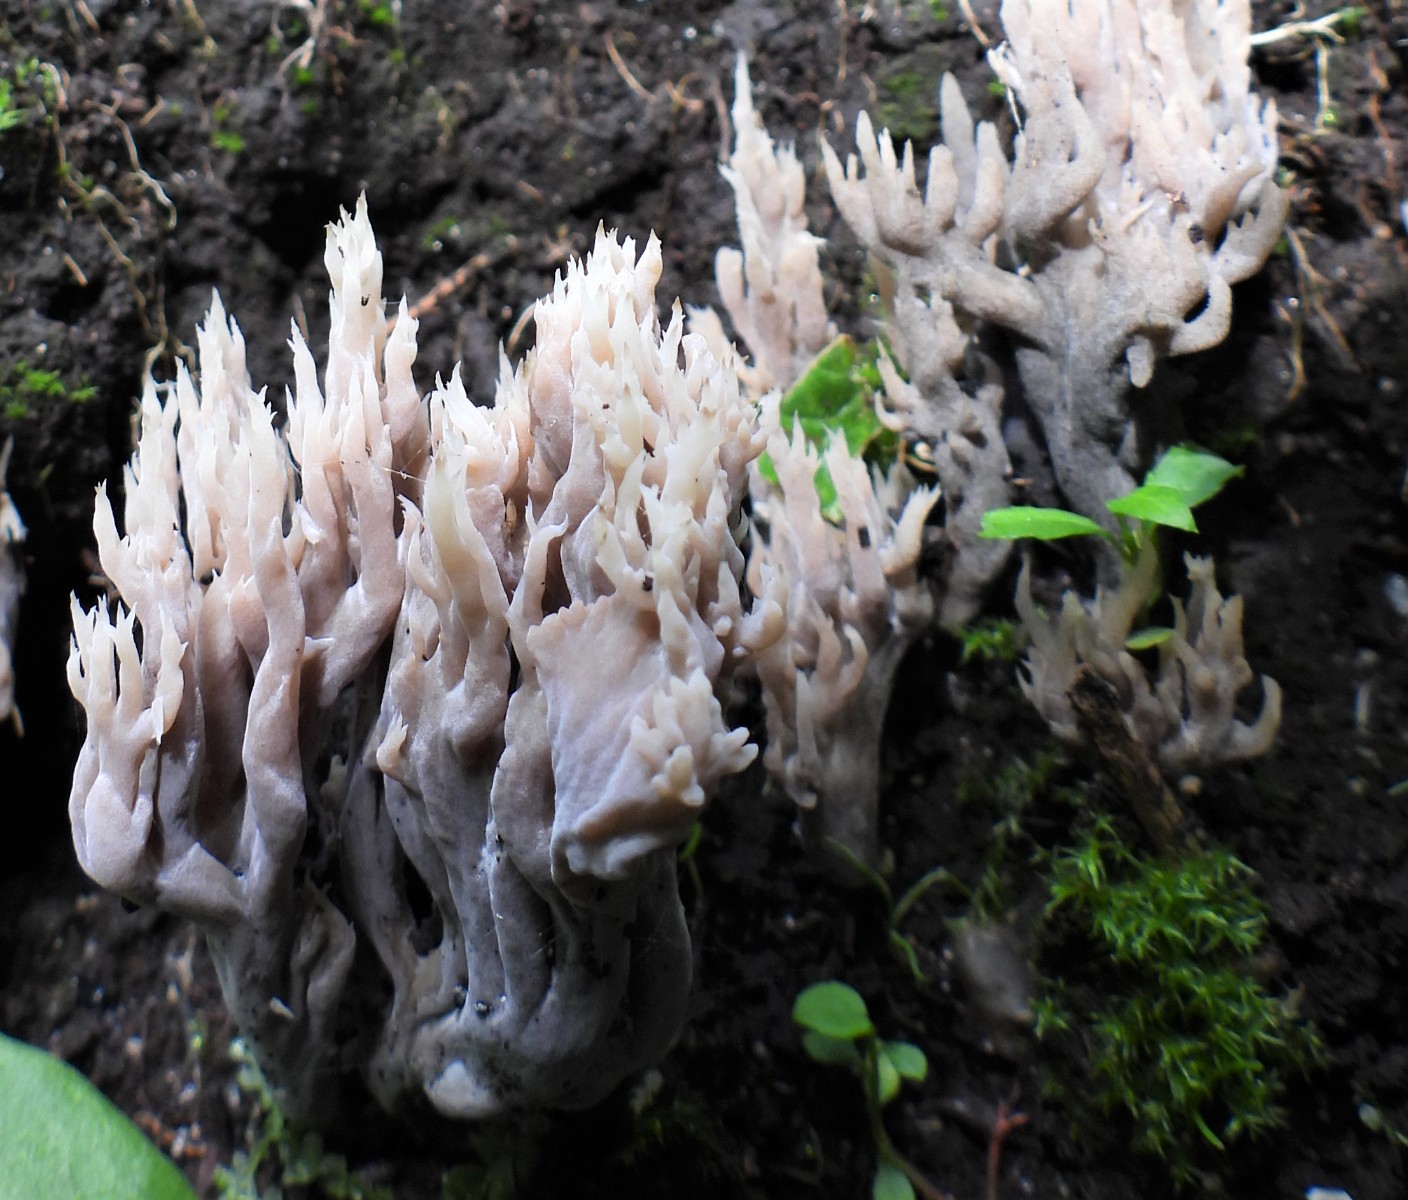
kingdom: Fungi
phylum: Basidiomycota
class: Agaricomycetes
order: Cantharellales
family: Hydnaceae
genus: Clavulina
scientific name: Clavulina
